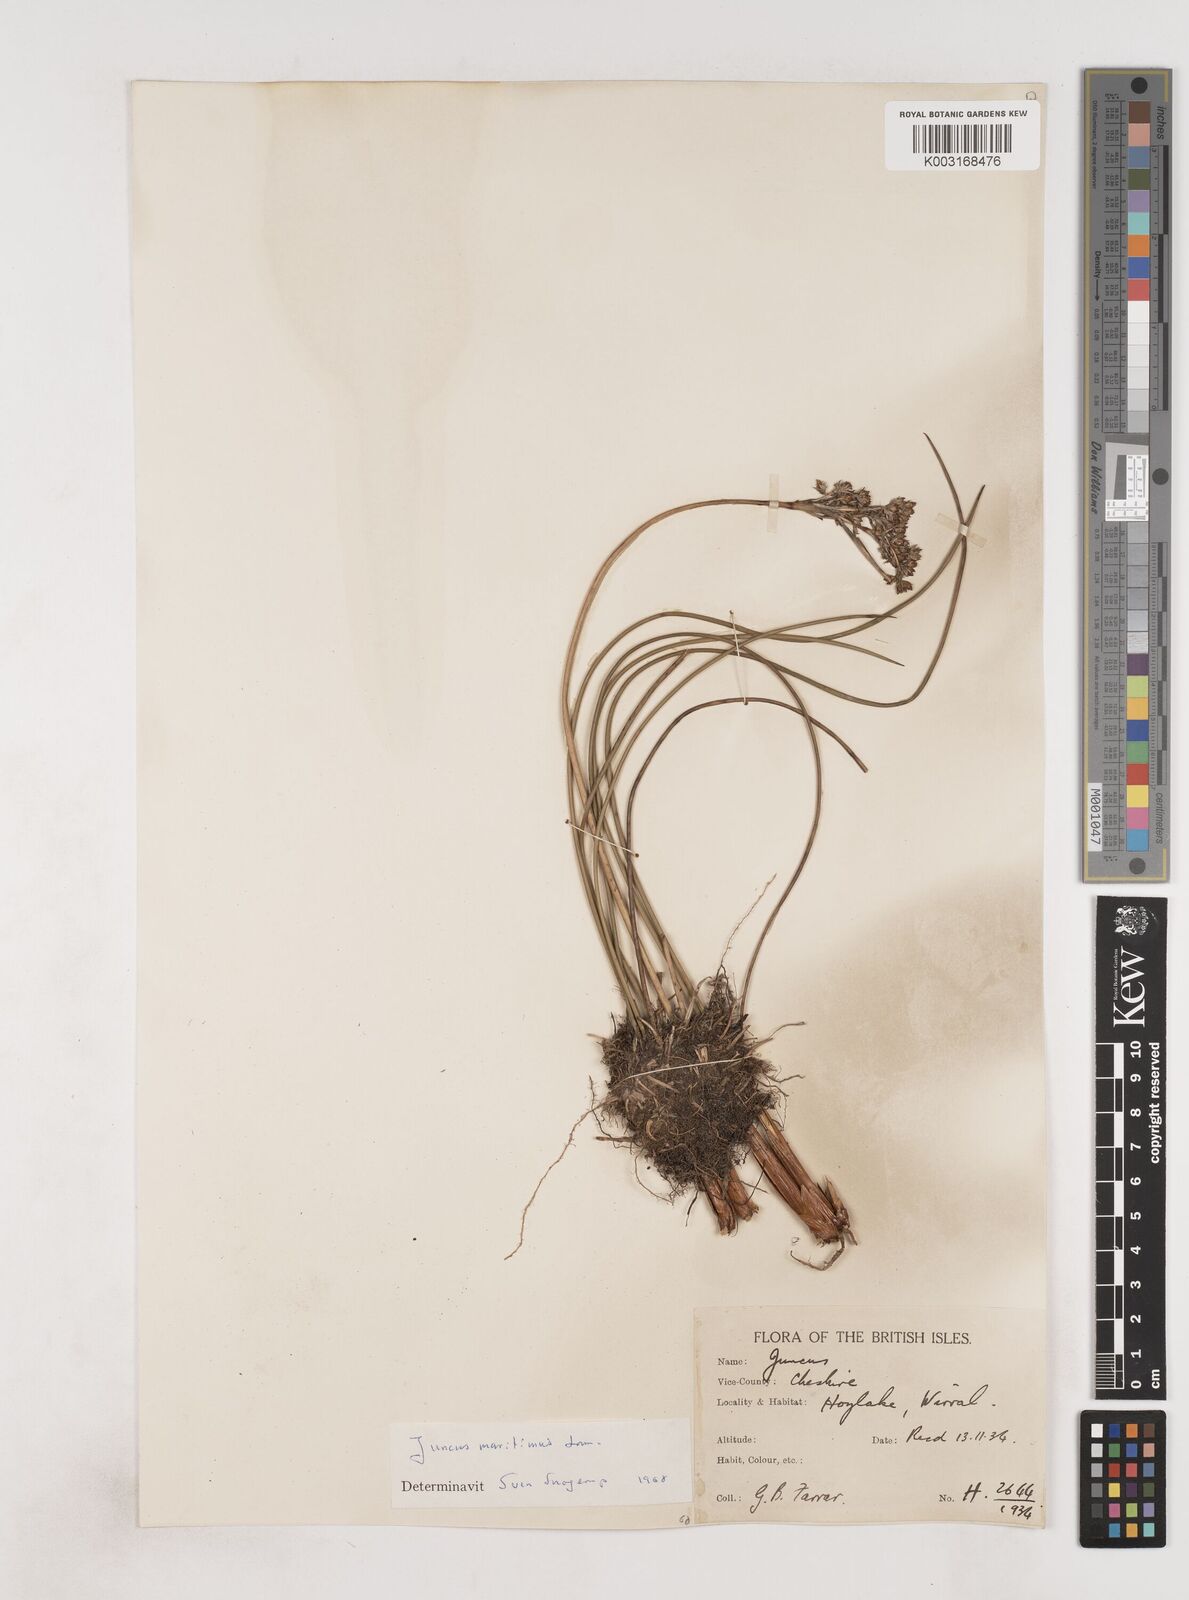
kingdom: Plantae
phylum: Tracheophyta
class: Liliopsida
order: Poales
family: Juncaceae
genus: Juncus
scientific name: Juncus maritimus
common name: Sea rush
